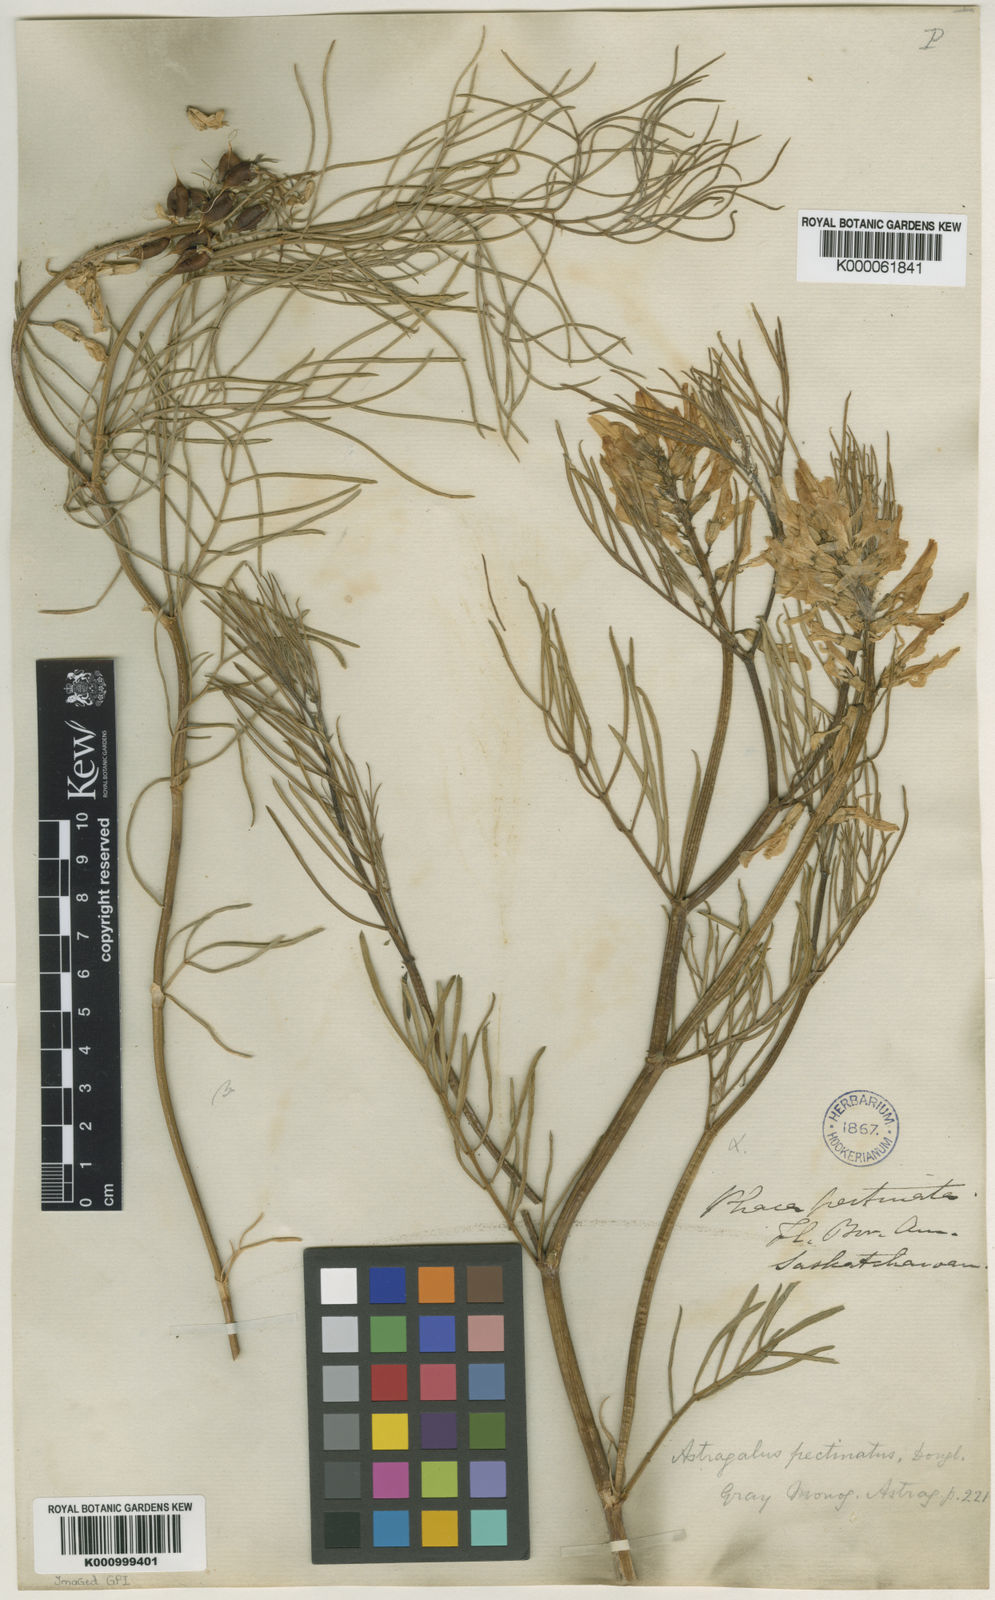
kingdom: Plantae
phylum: Tracheophyta
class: Magnoliopsida
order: Fabales
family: Fabaceae
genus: Astragalus
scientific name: Astragalus pectinatus
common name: Tine-leaf milk-vetch
